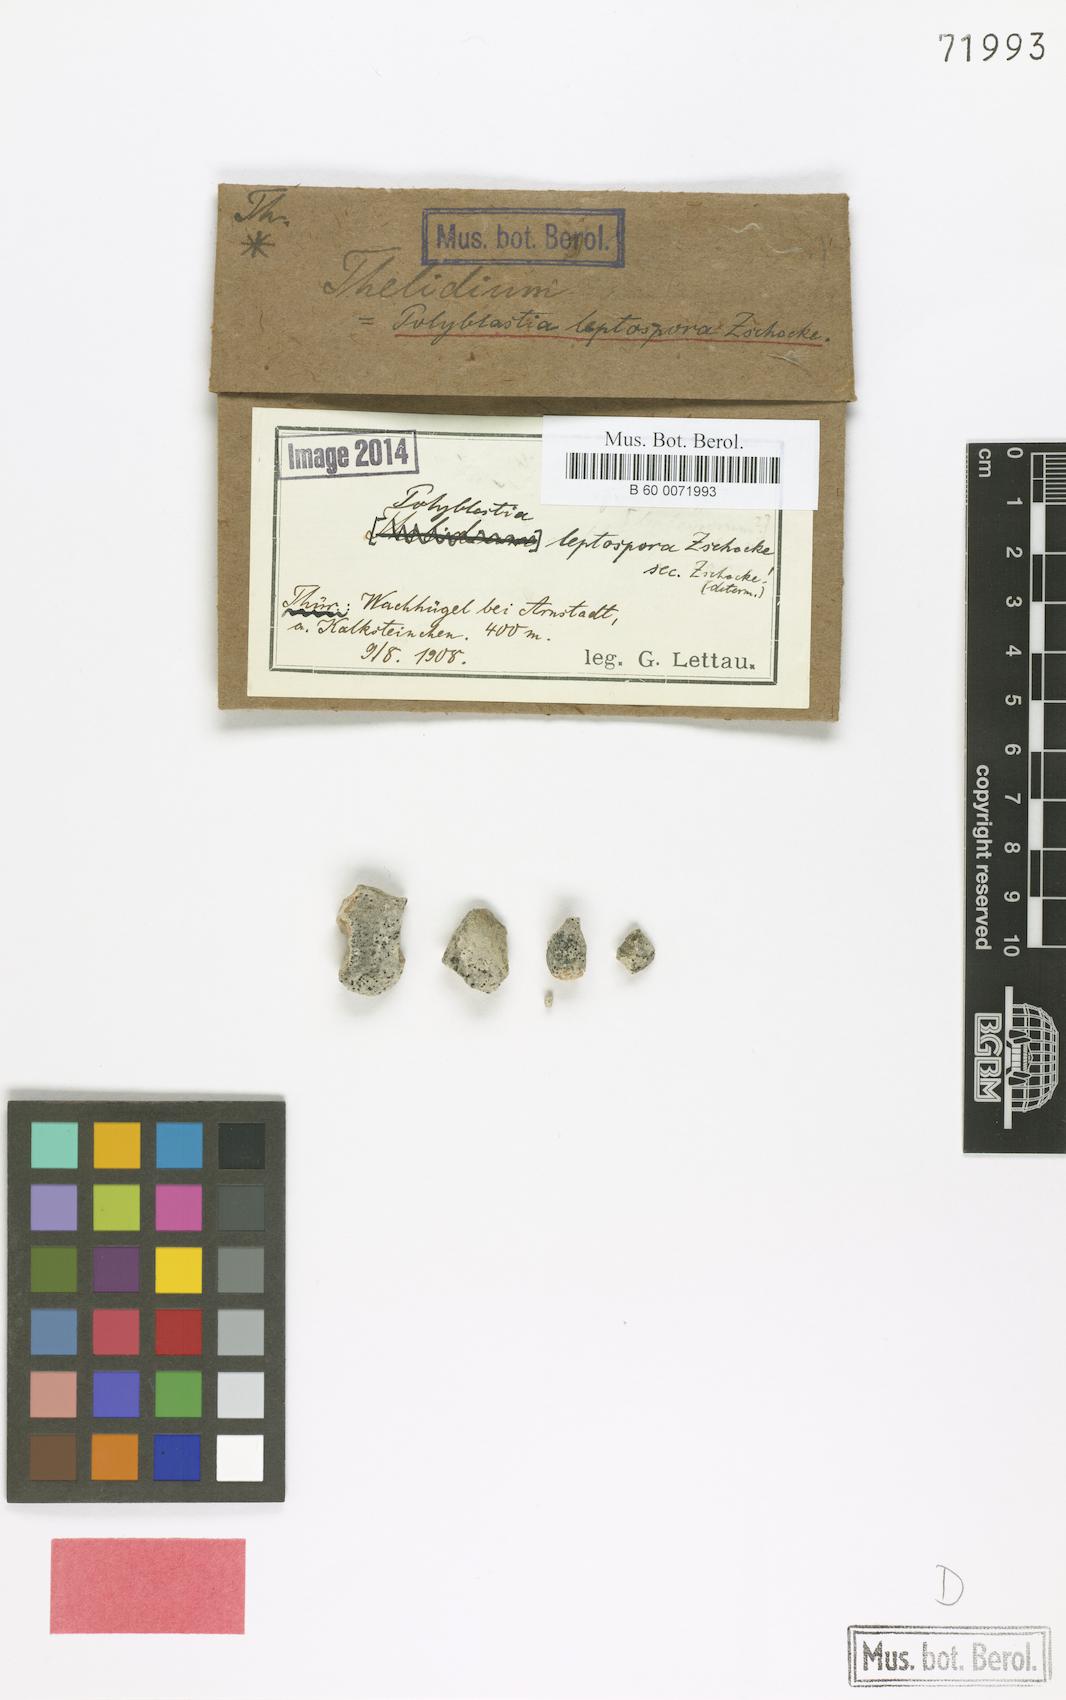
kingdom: Fungi
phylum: Ascomycota
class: Eurotiomycetes
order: Verrucariales
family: Verrucariaceae
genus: Polyblastia
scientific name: Polyblastia
